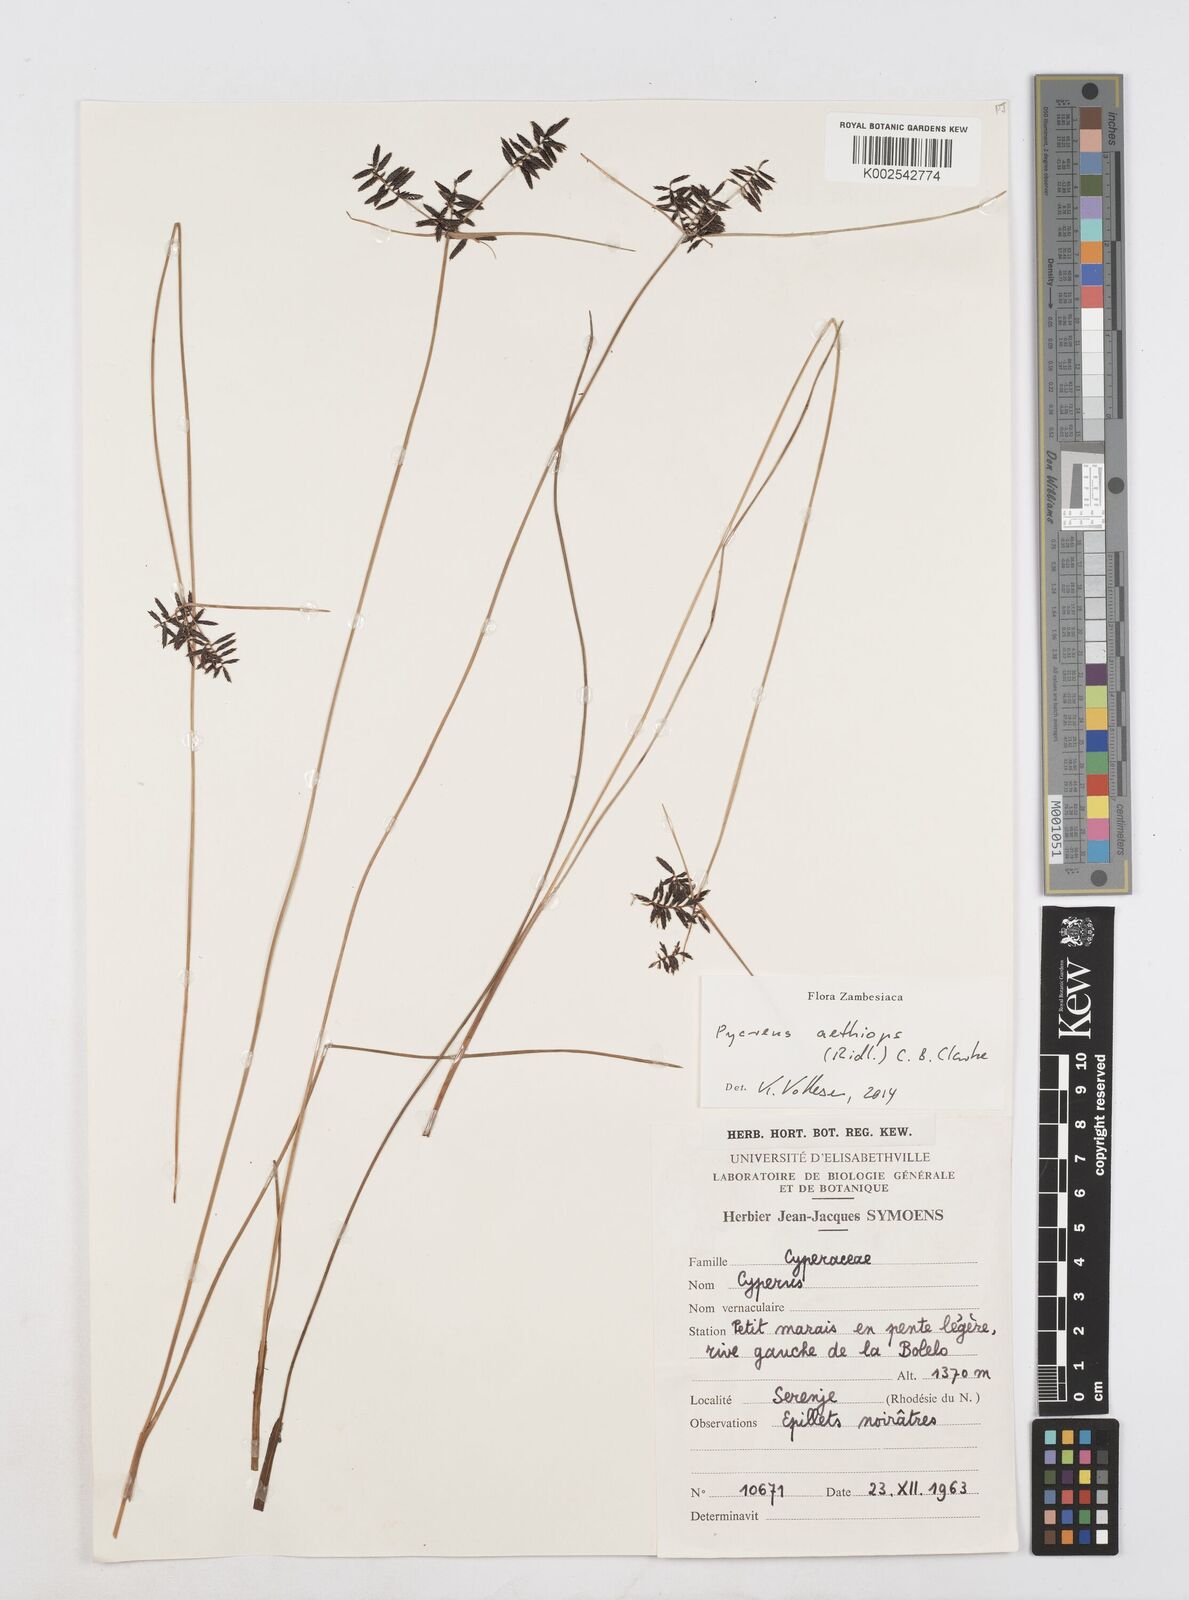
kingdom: Plantae
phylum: Tracheophyta
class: Liliopsida
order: Poales
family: Cyperaceae
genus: Cyperus
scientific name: Cyperus aethiops
